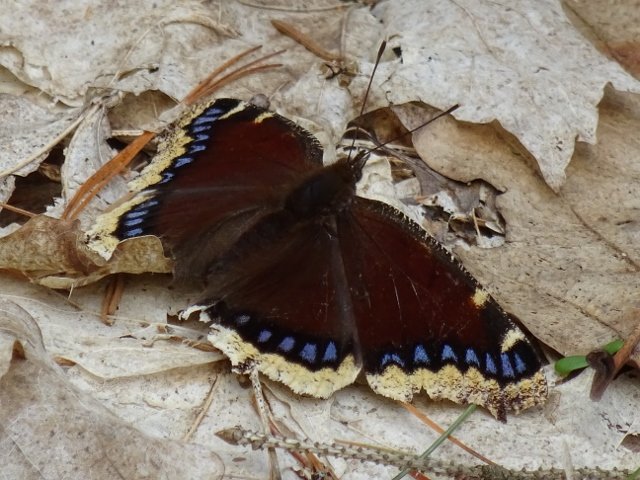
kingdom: Animalia
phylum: Arthropoda
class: Insecta
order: Lepidoptera
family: Nymphalidae
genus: Nymphalis
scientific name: Nymphalis antiopa
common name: Mourning Cloak
